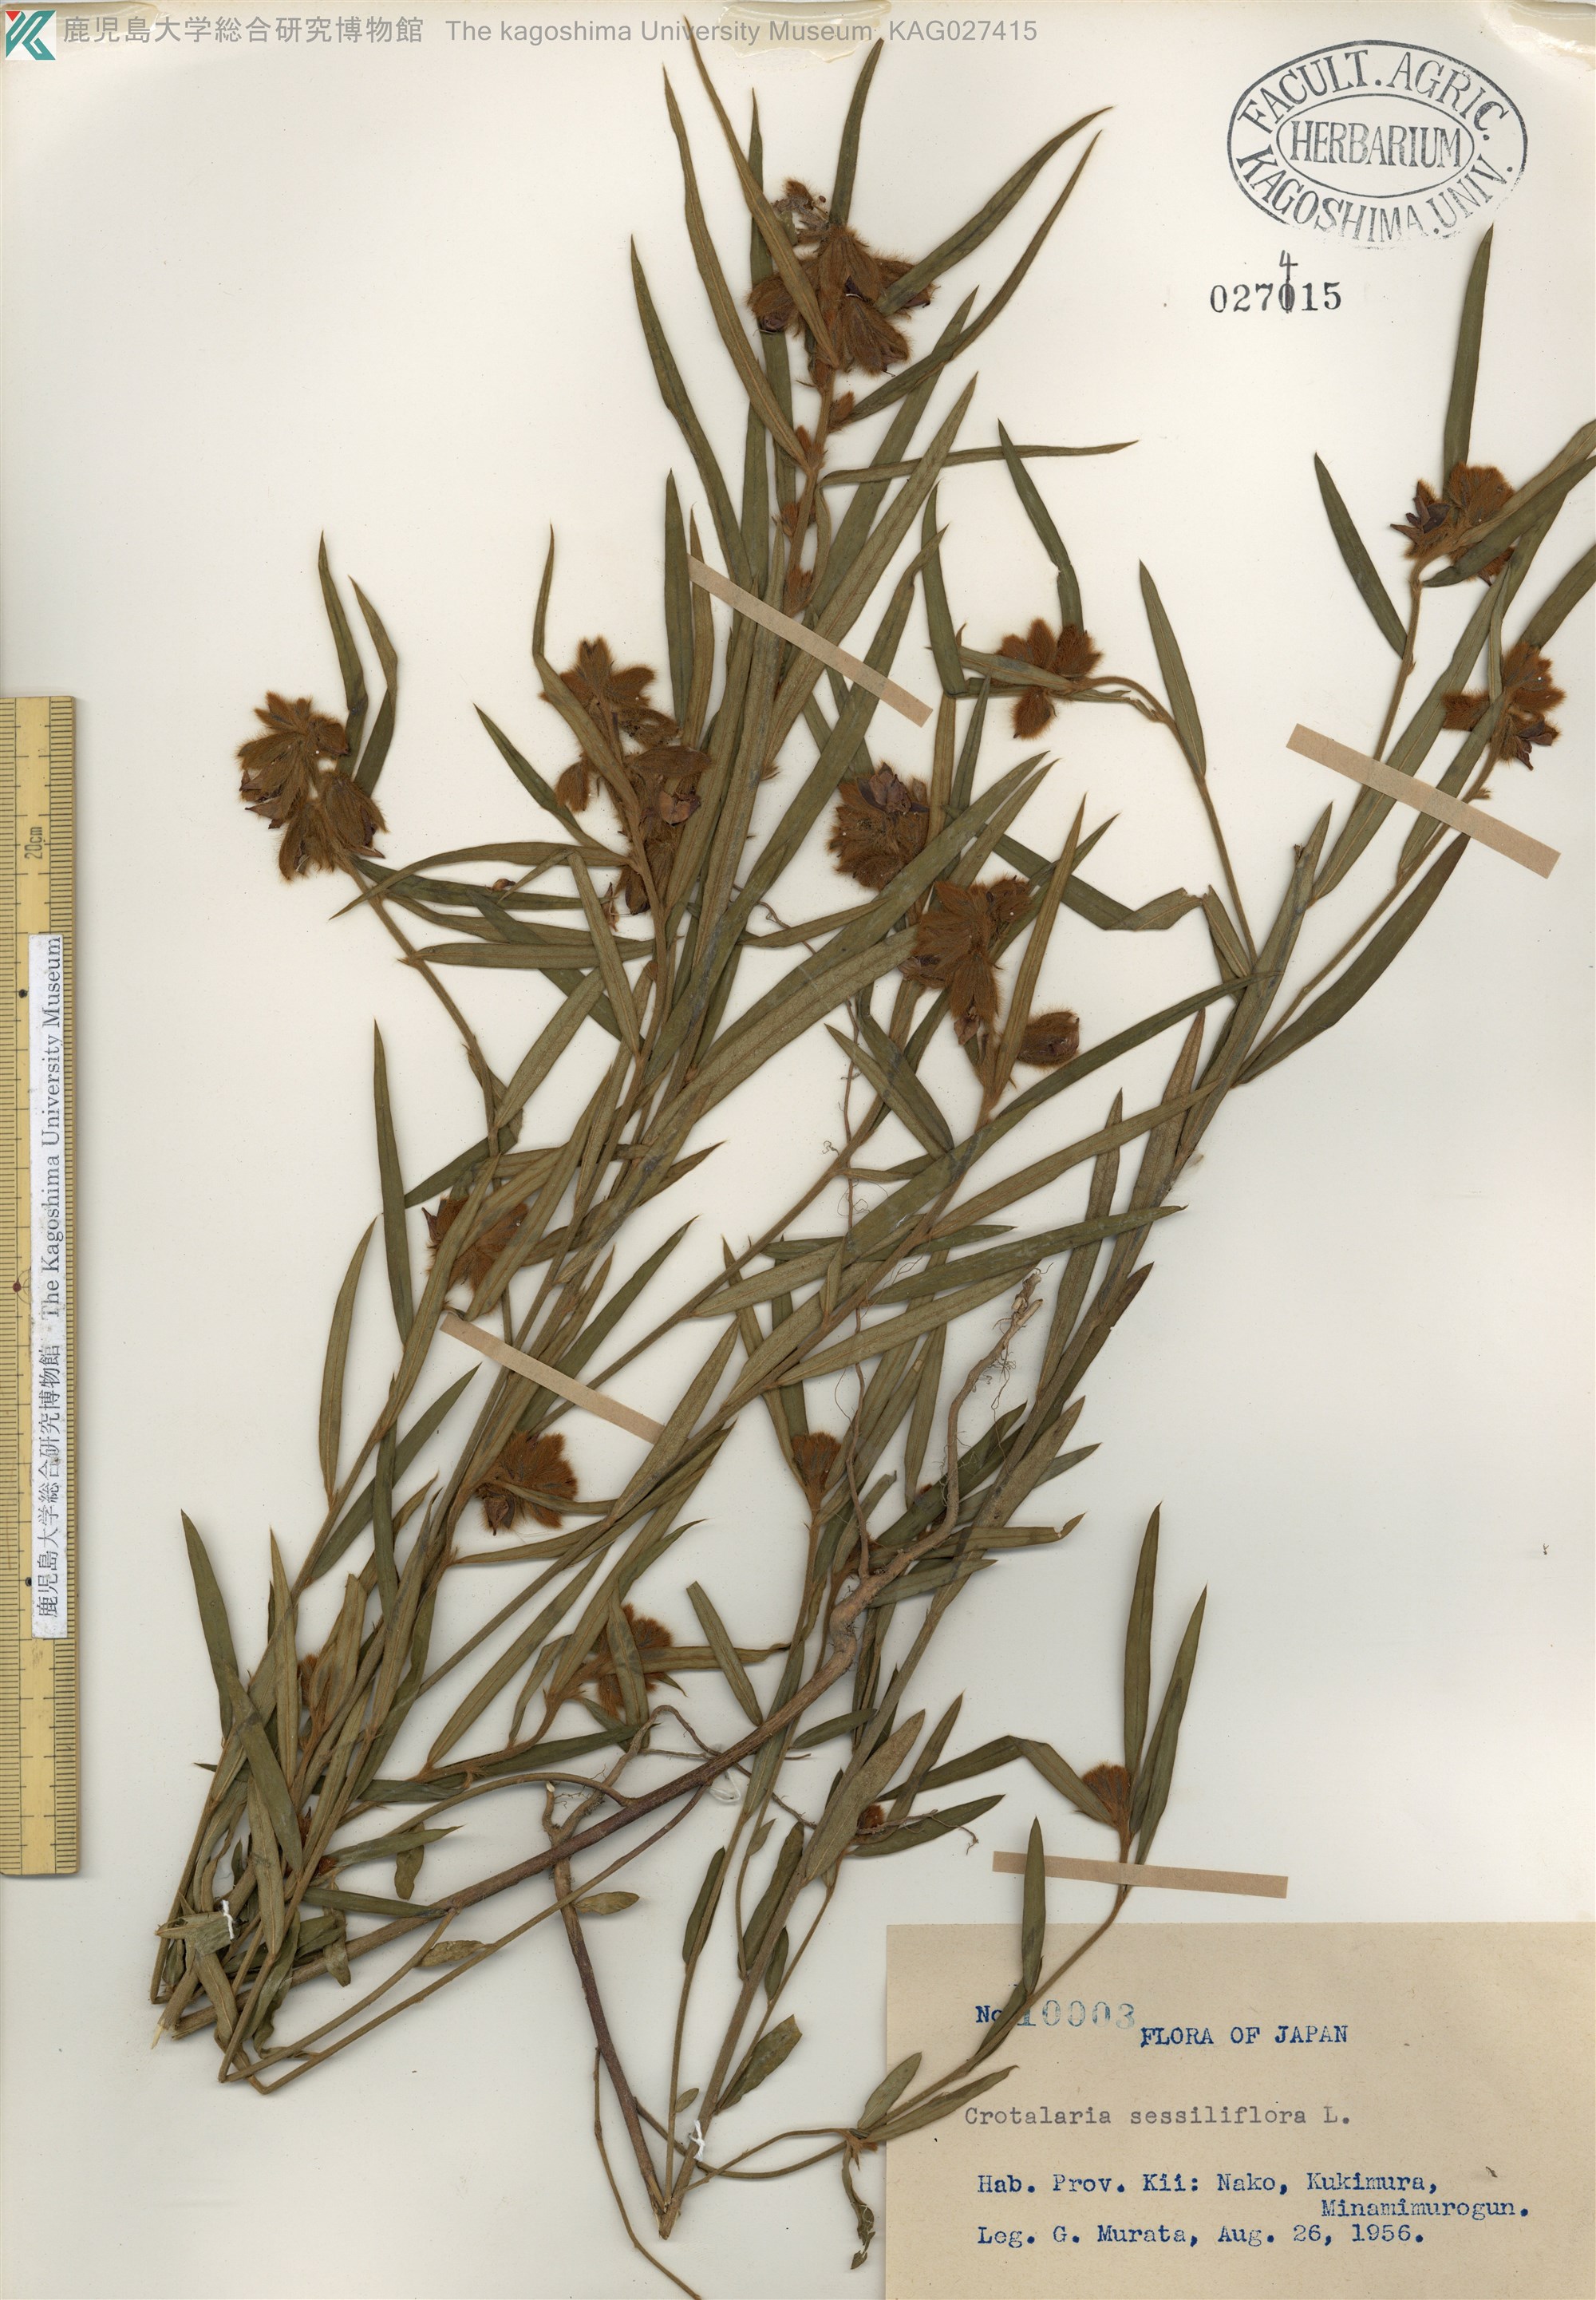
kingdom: Plantae
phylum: Tracheophyta
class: Magnoliopsida
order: Fabales
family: Fabaceae
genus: Crotalaria
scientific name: Crotalaria sessiliflora
